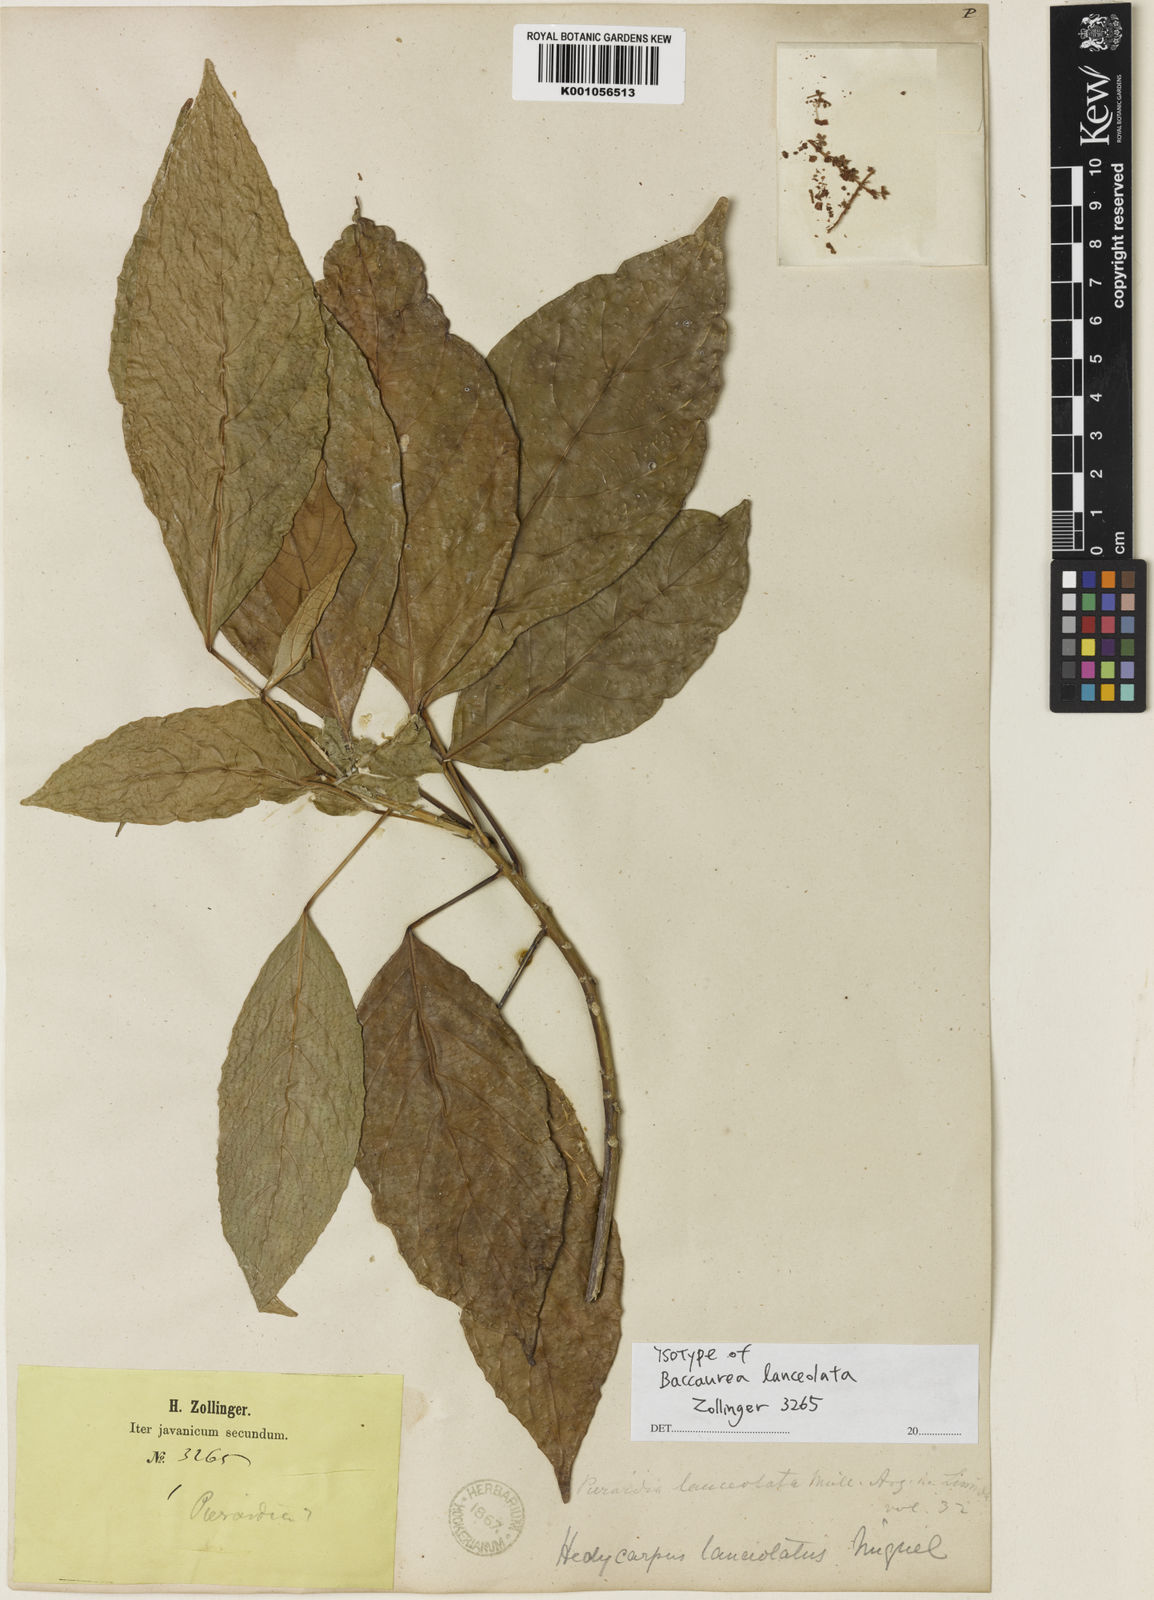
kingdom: Plantae
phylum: Tracheophyta
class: Magnoliopsida
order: Malpighiales
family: Phyllanthaceae
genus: Baccaurea
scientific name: Baccaurea
